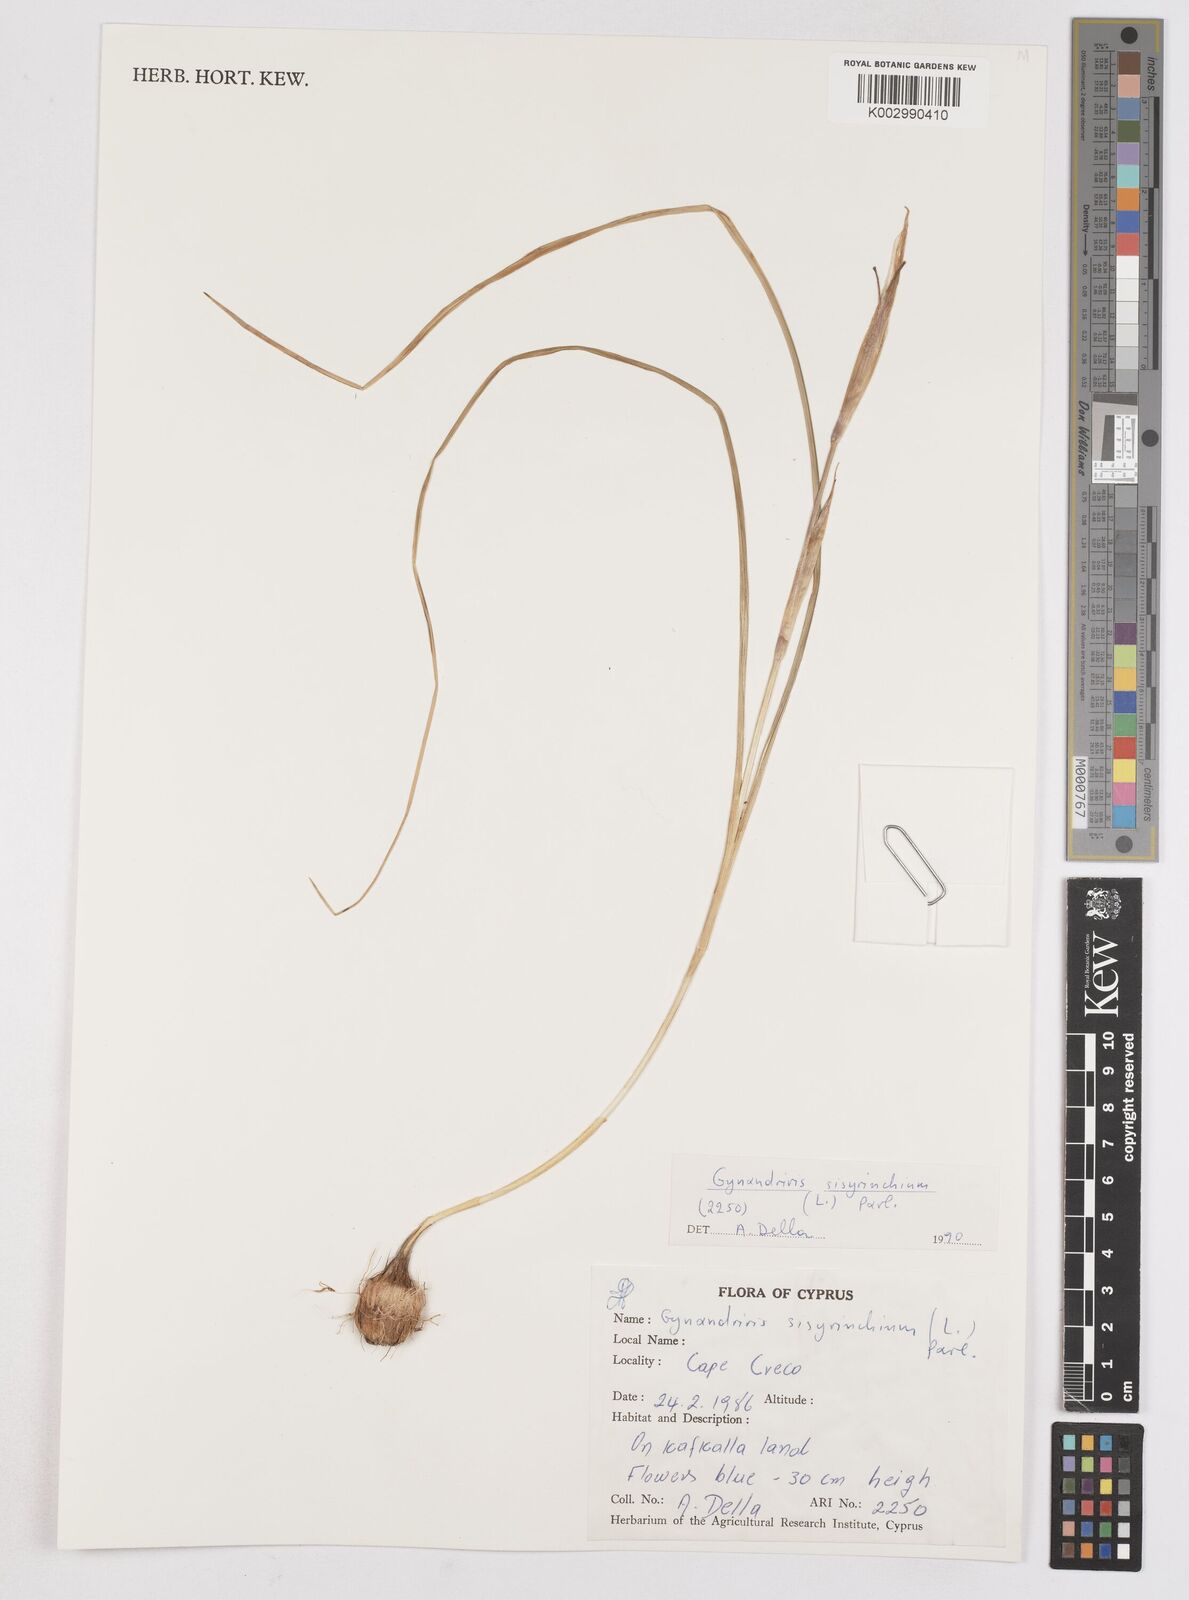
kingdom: Plantae
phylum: Tracheophyta
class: Liliopsida
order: Asparagales
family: Iridaceae
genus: Moraea
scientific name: Moraea sisyrinchium
